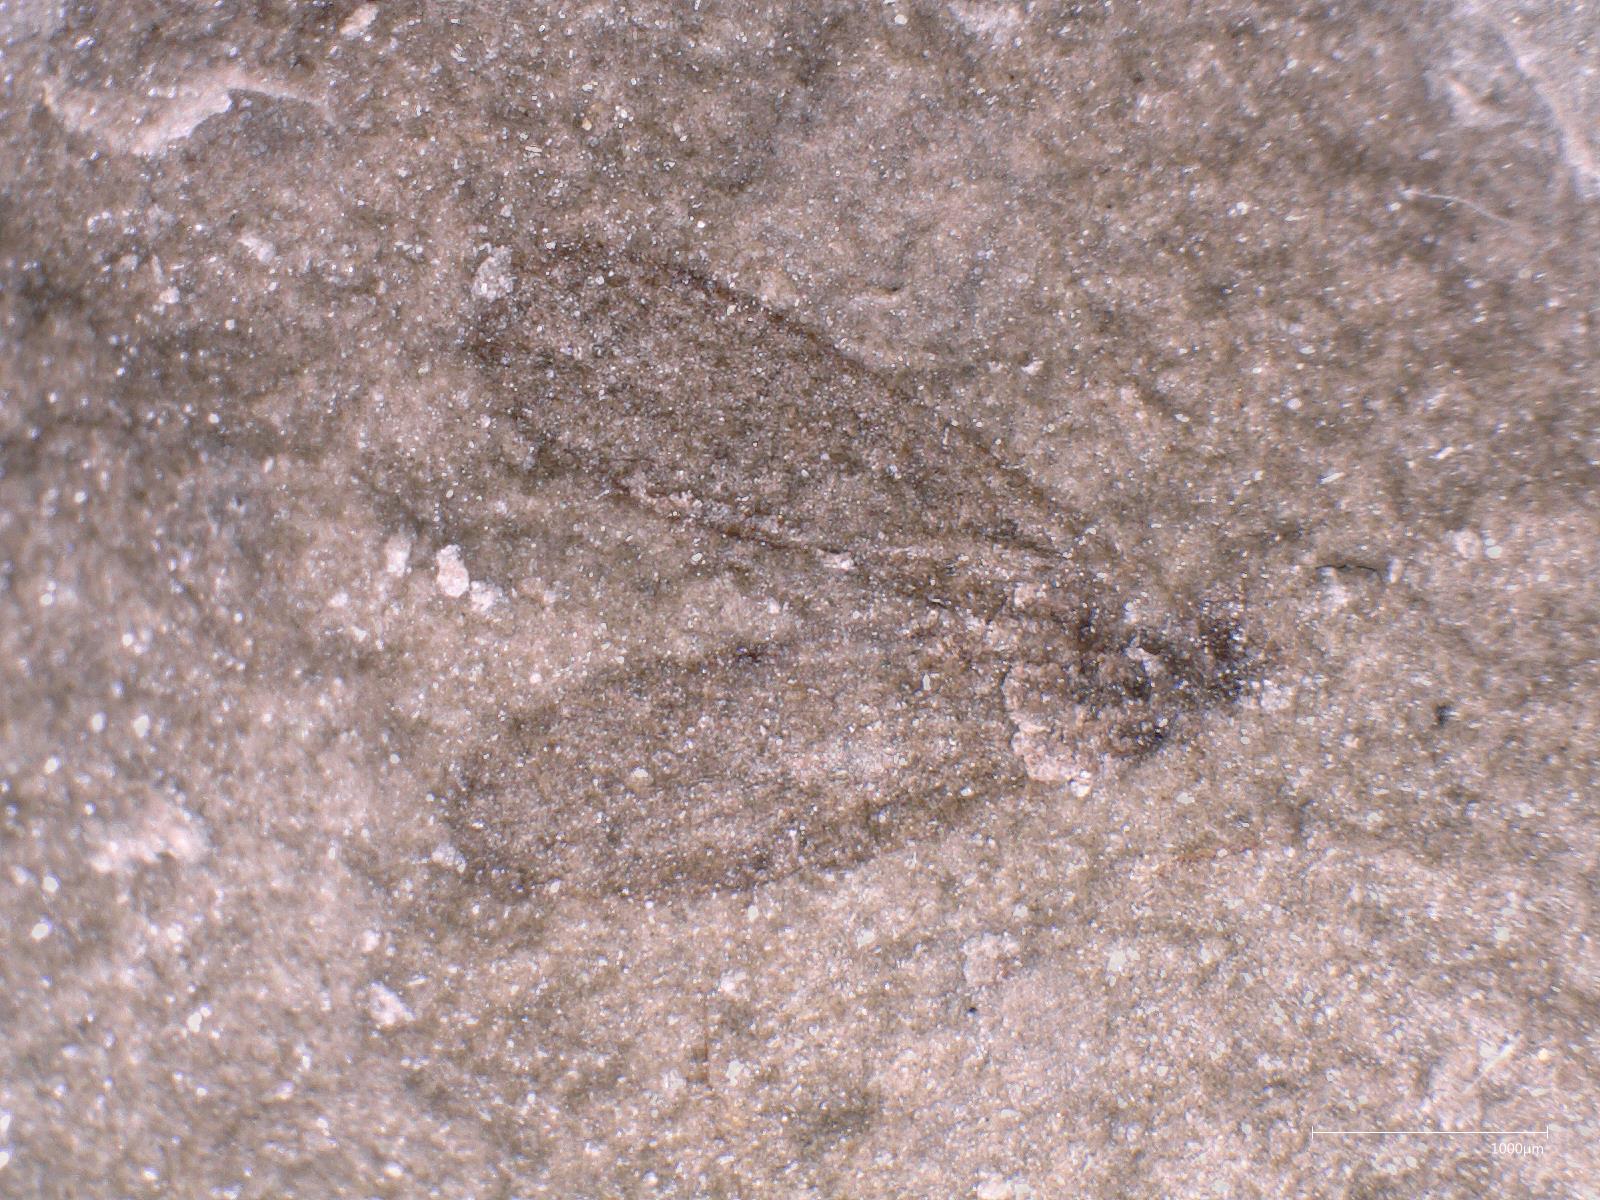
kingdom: Animalia
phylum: Arthropoda
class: Insecta
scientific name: Insecta
